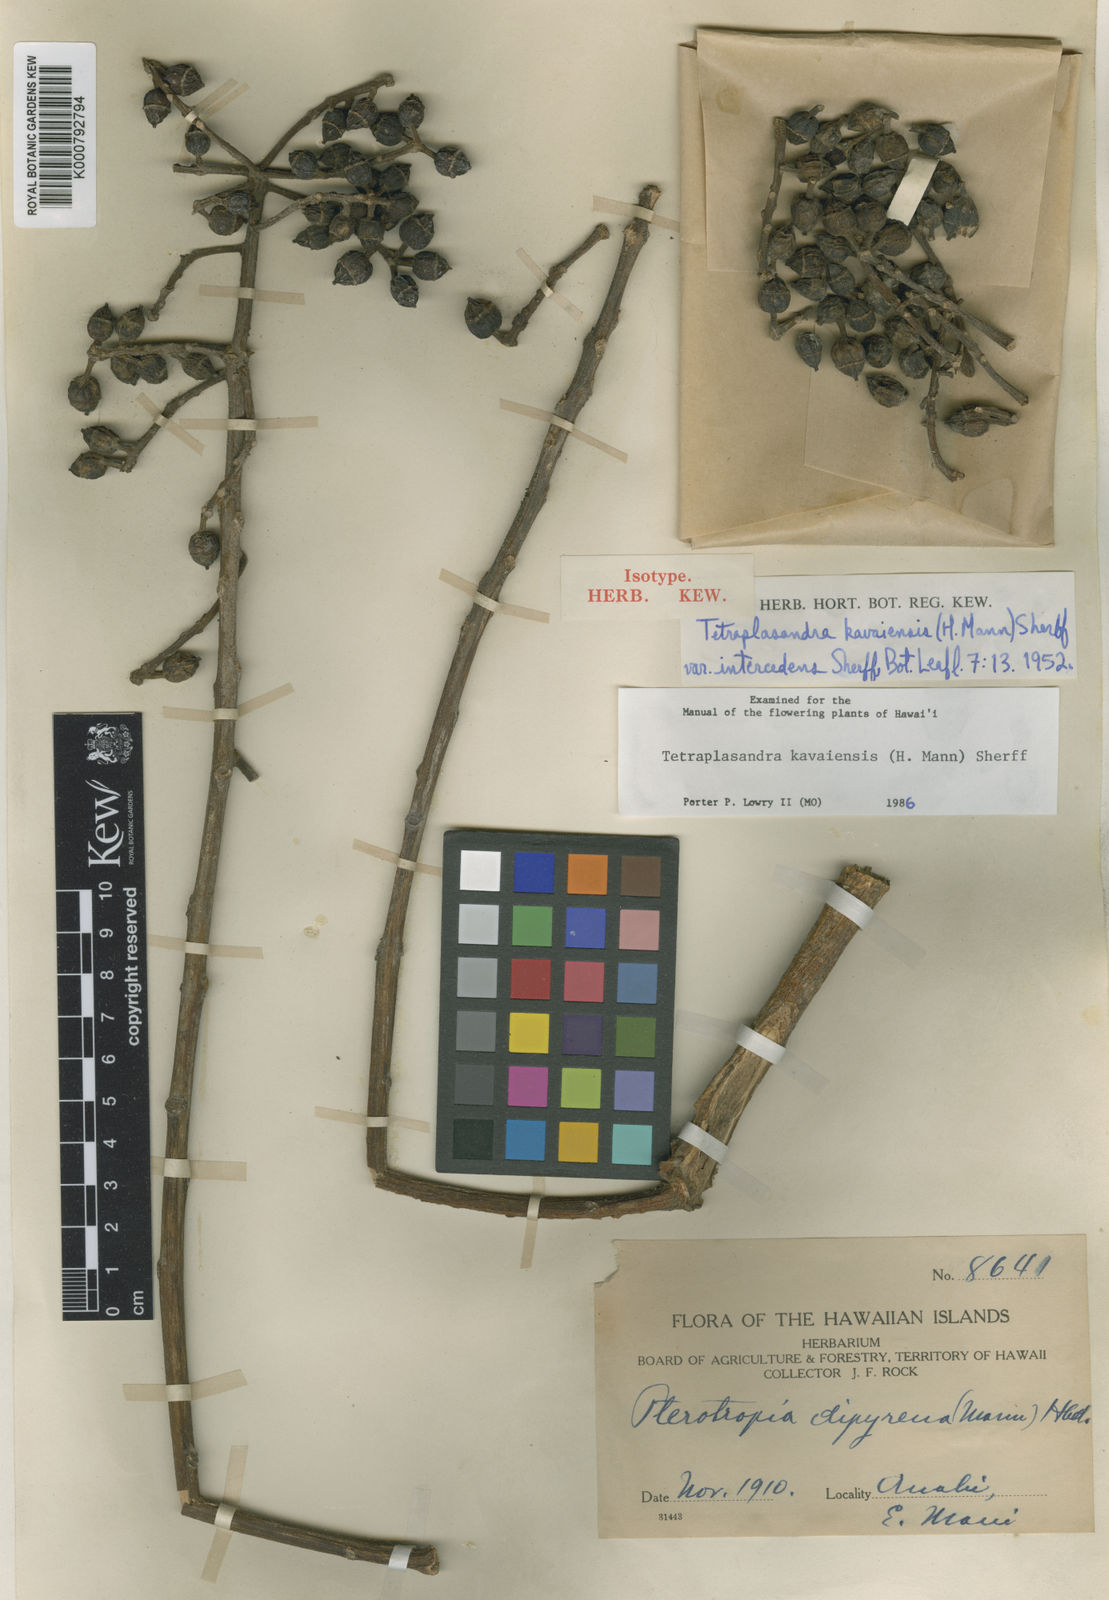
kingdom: Plantae
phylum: Tracheophyta
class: Magnoliopsida
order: Apiales
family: Araliaceae
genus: Polyscias
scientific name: Polyscias kavaiensis
